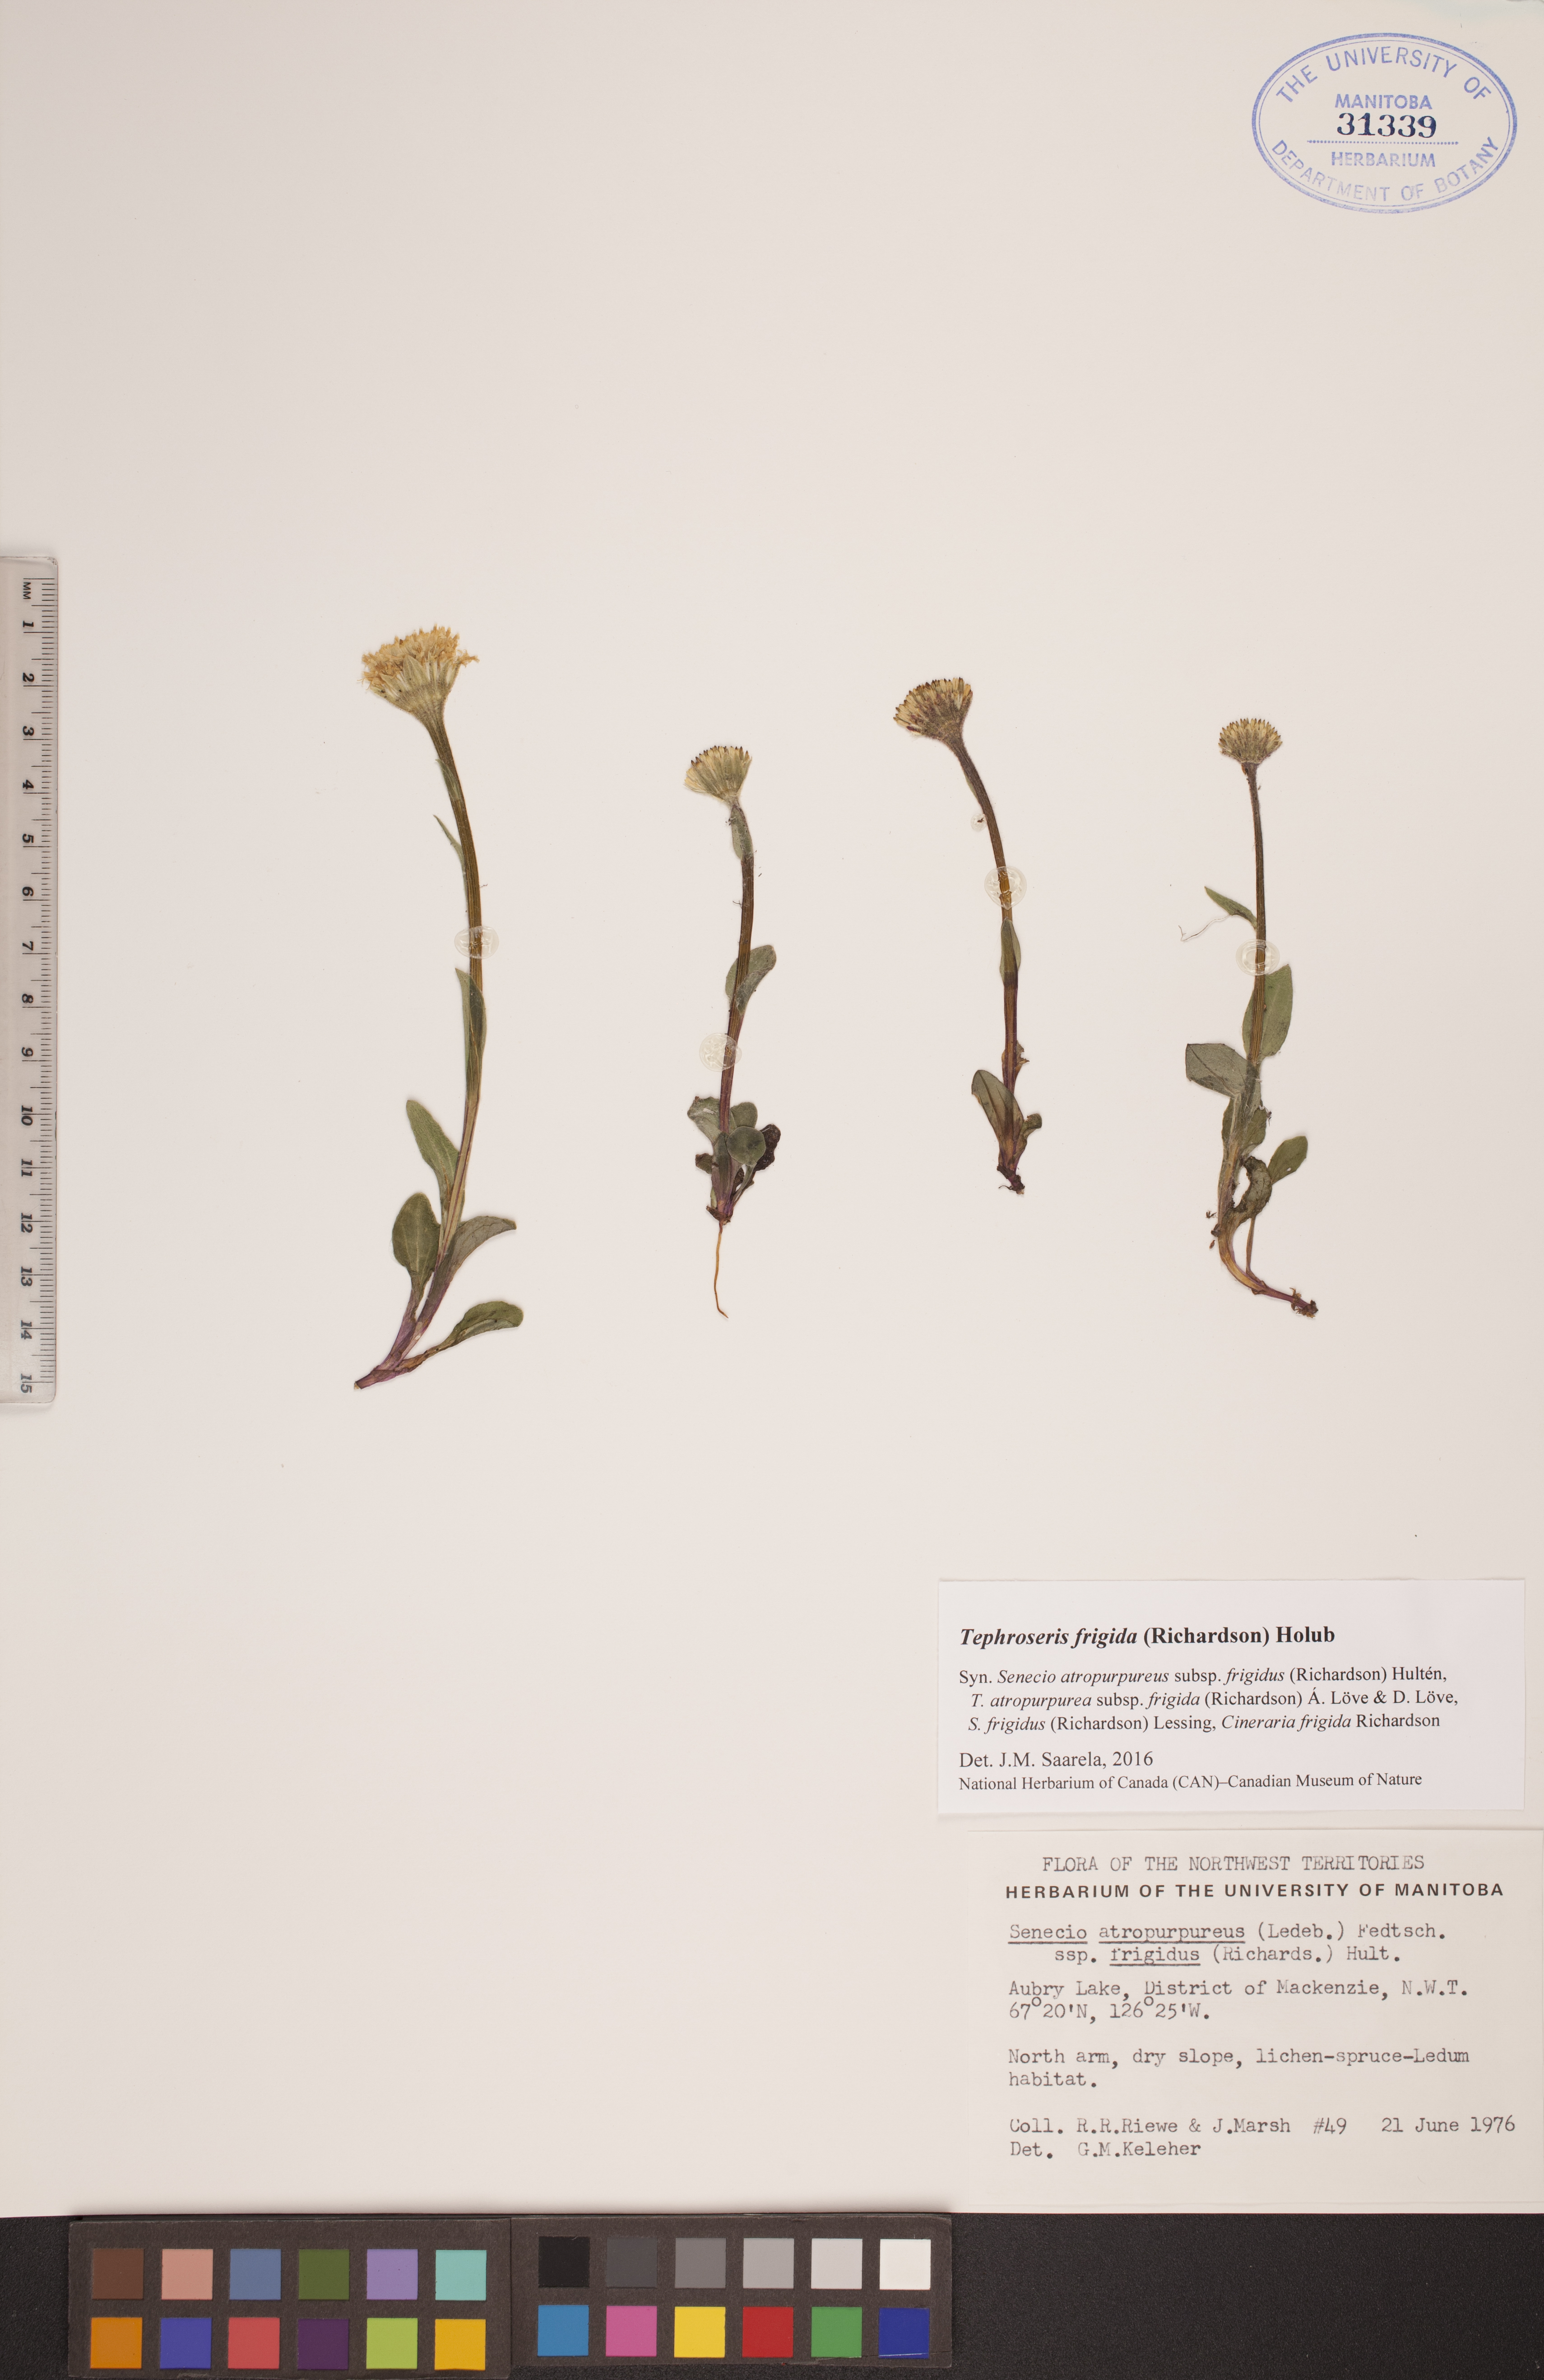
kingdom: Plantae
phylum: Tracheophyta
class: Magnoliopsida
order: Asterales
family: Asteraceae
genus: Tephroseris
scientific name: Tephroseris frigida
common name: Arctic groundsel
